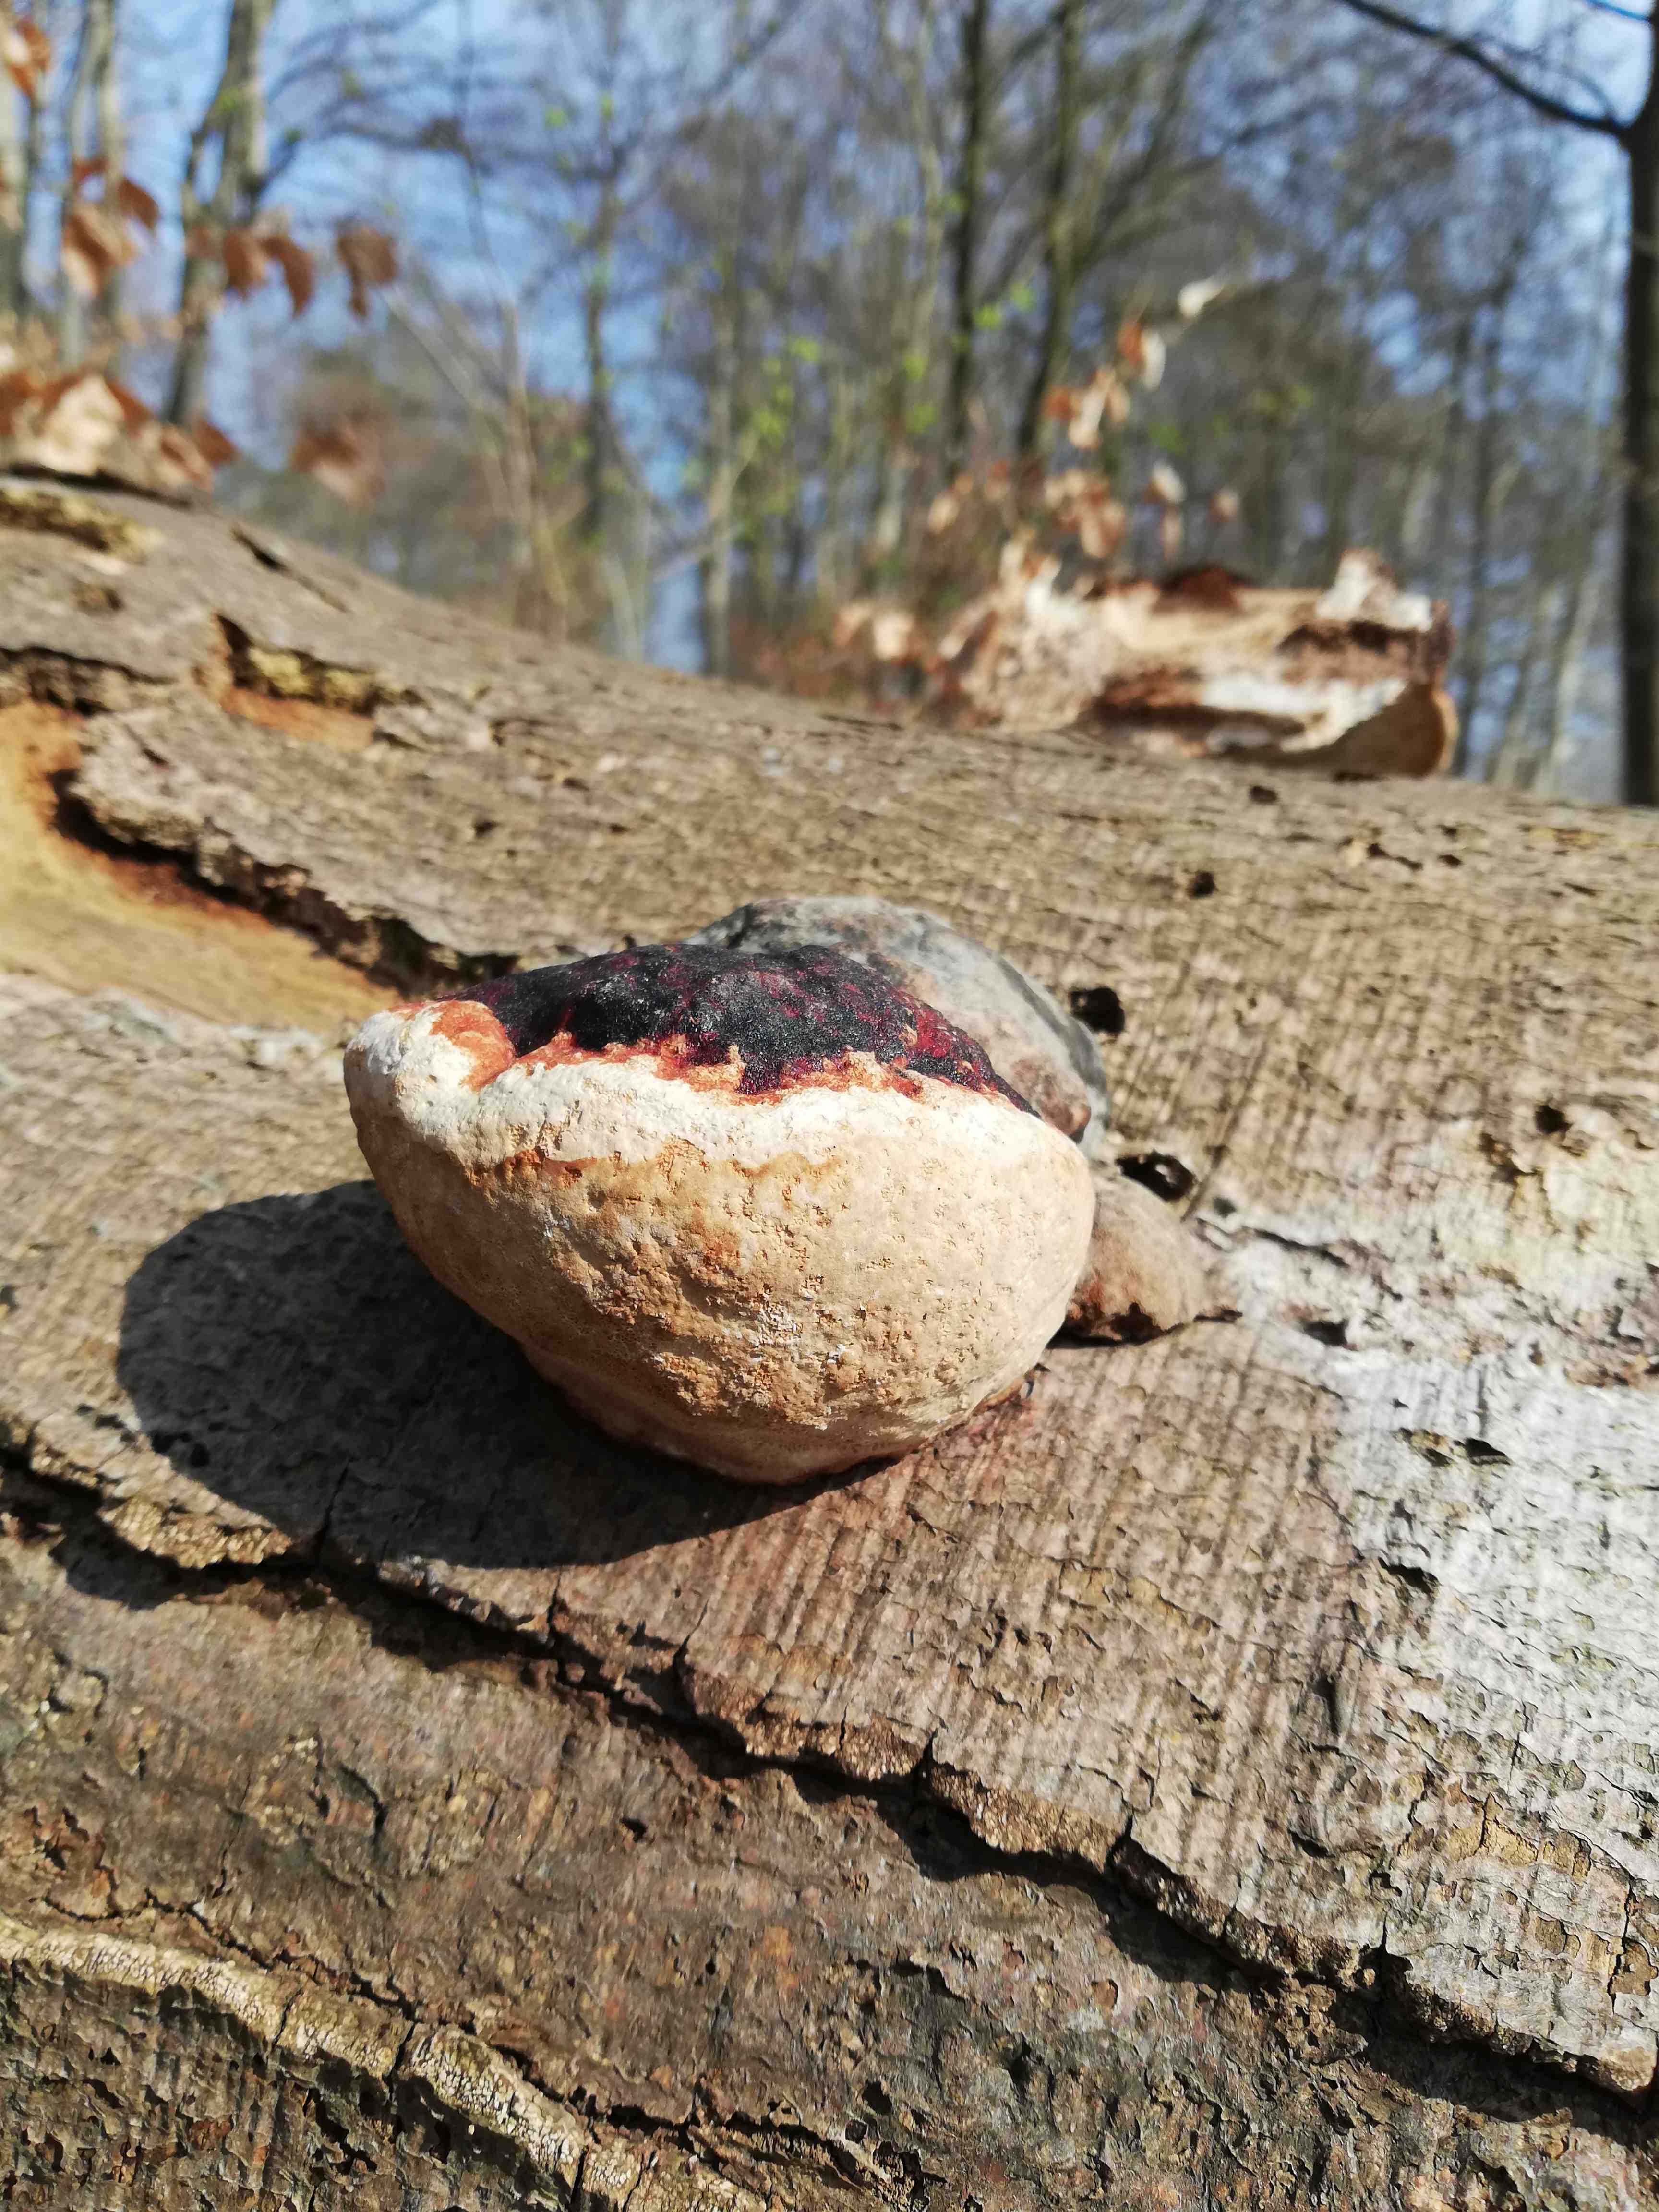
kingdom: Fungi
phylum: Basidiomycota
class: Agaricomycetes
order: Polyporales
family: Fomitopsidaceae
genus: Fomitopsis
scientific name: Fomitopsis pinicola
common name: randbæltet hovporesvamp
